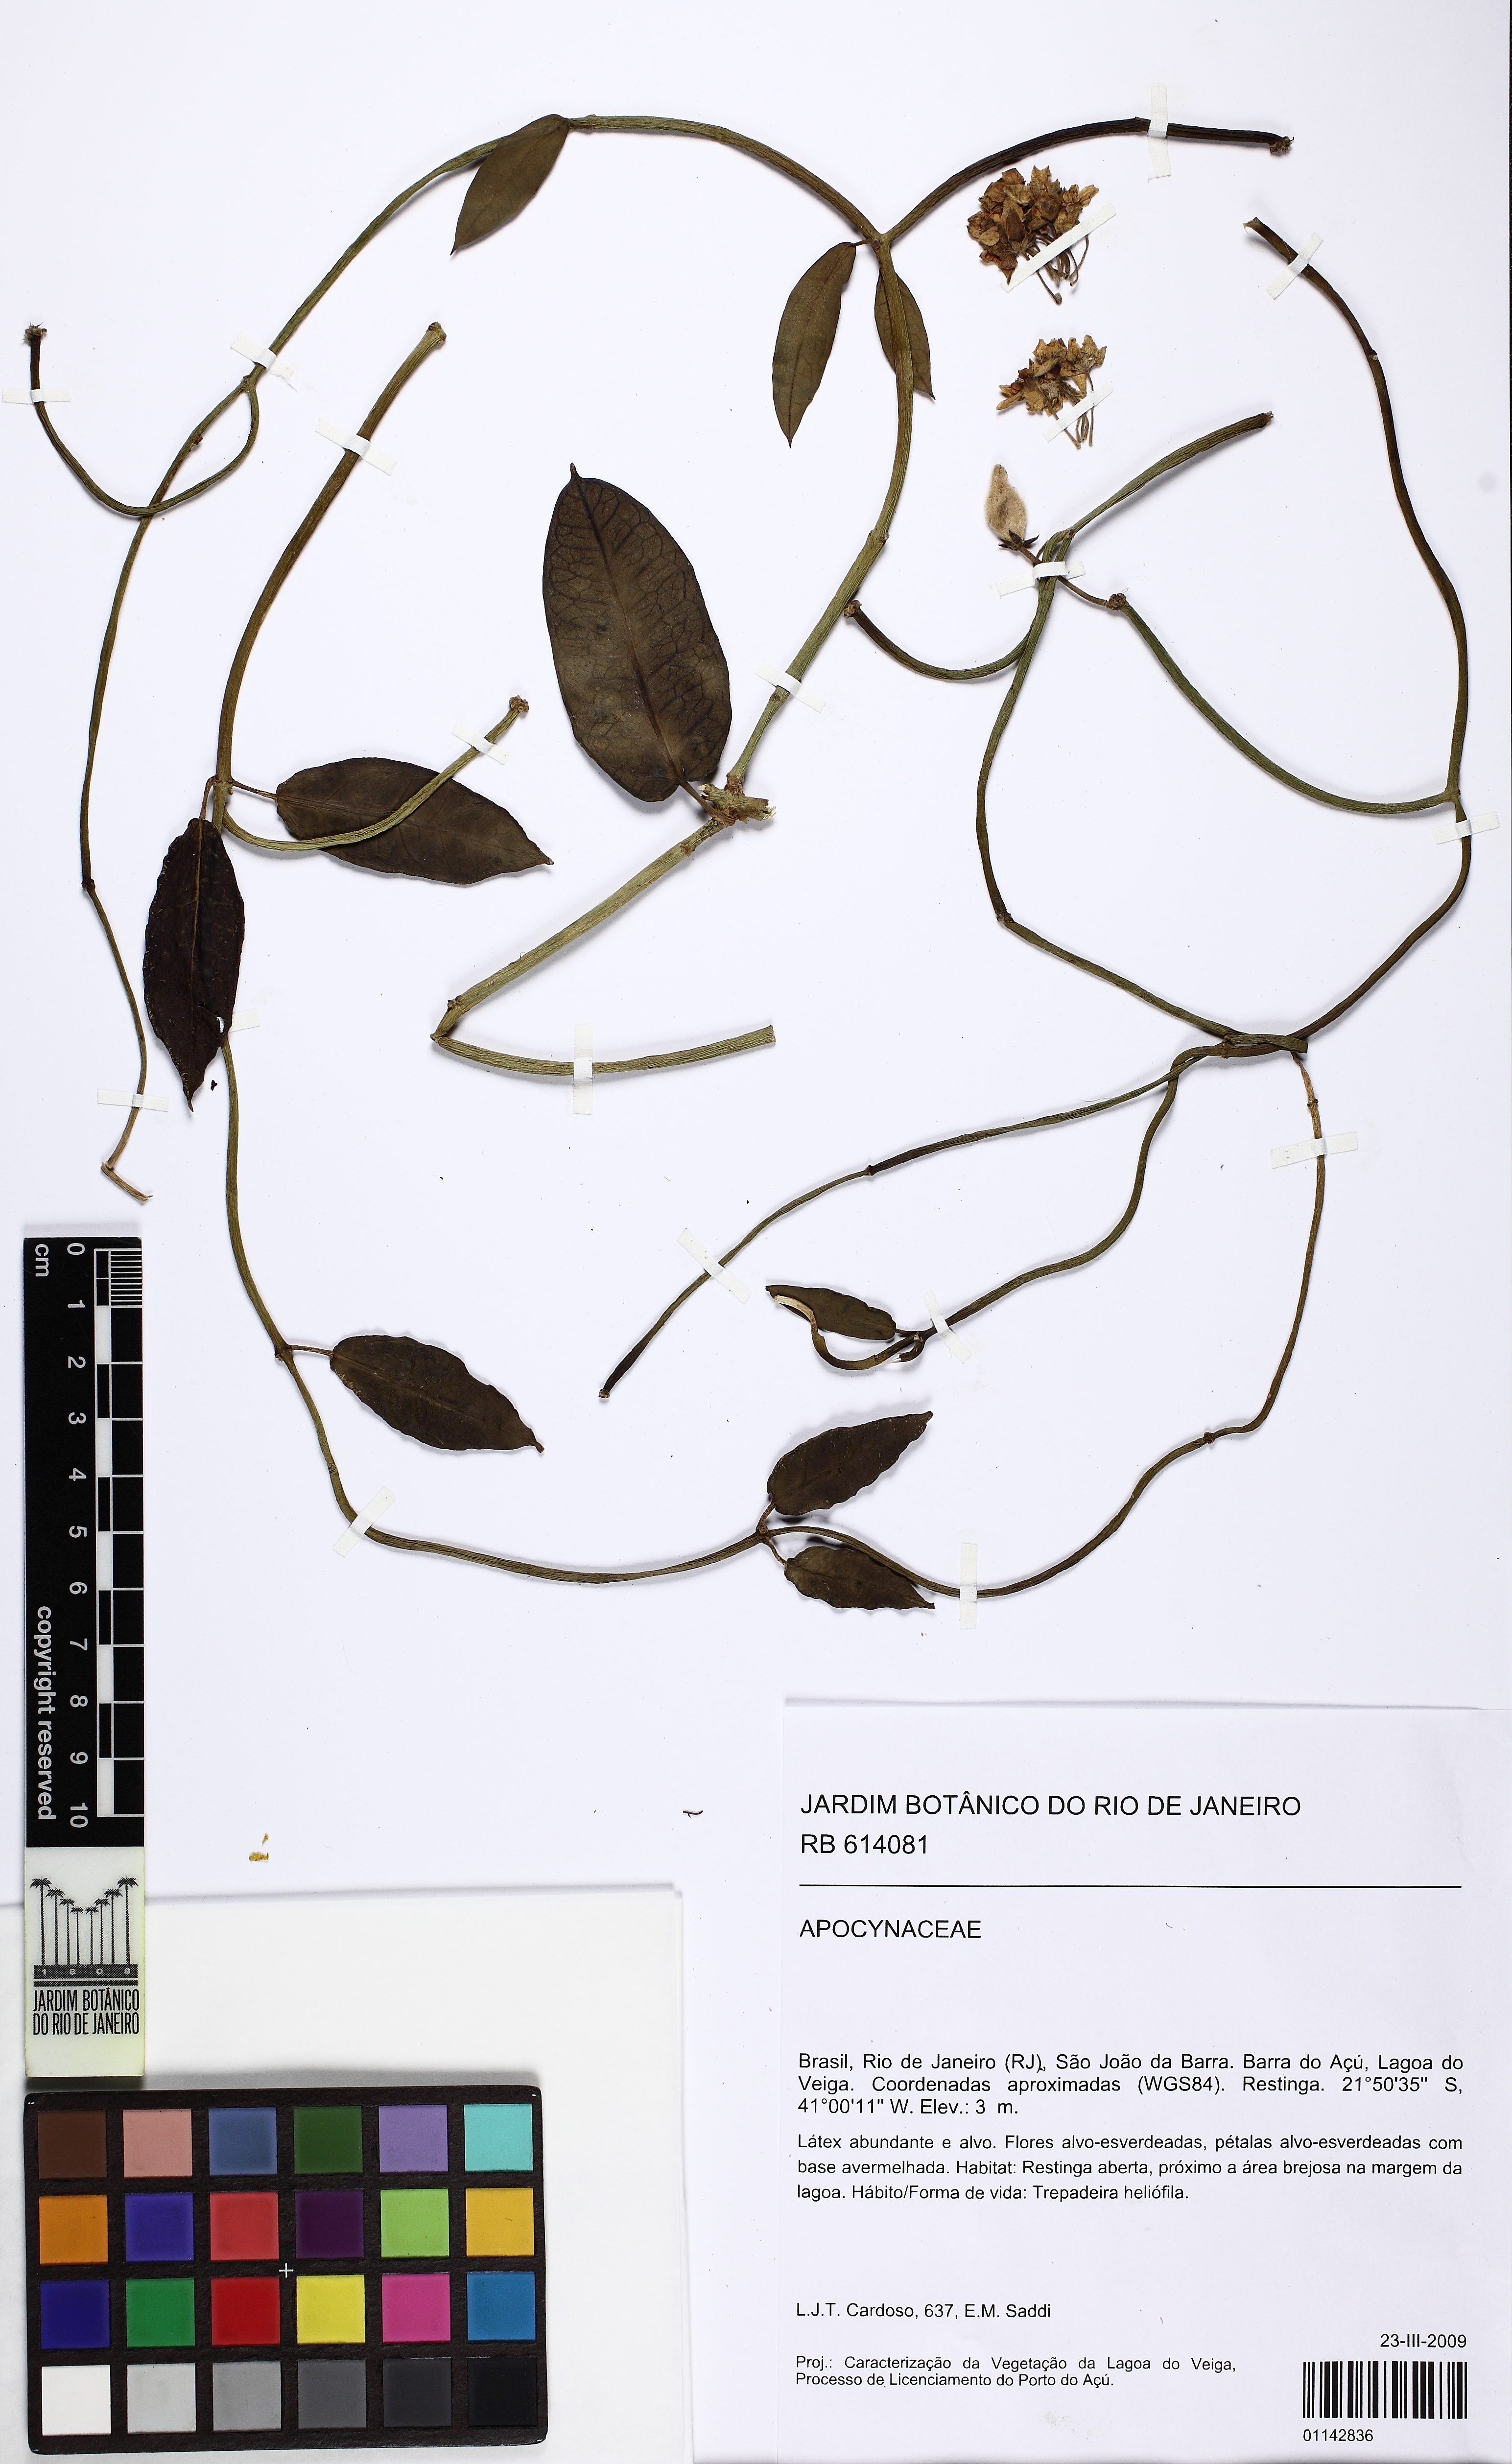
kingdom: Plantae
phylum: Tracheophyta
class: Magnoliopsida
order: Gentianales
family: Apocynaceae
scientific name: Apocynaceae
